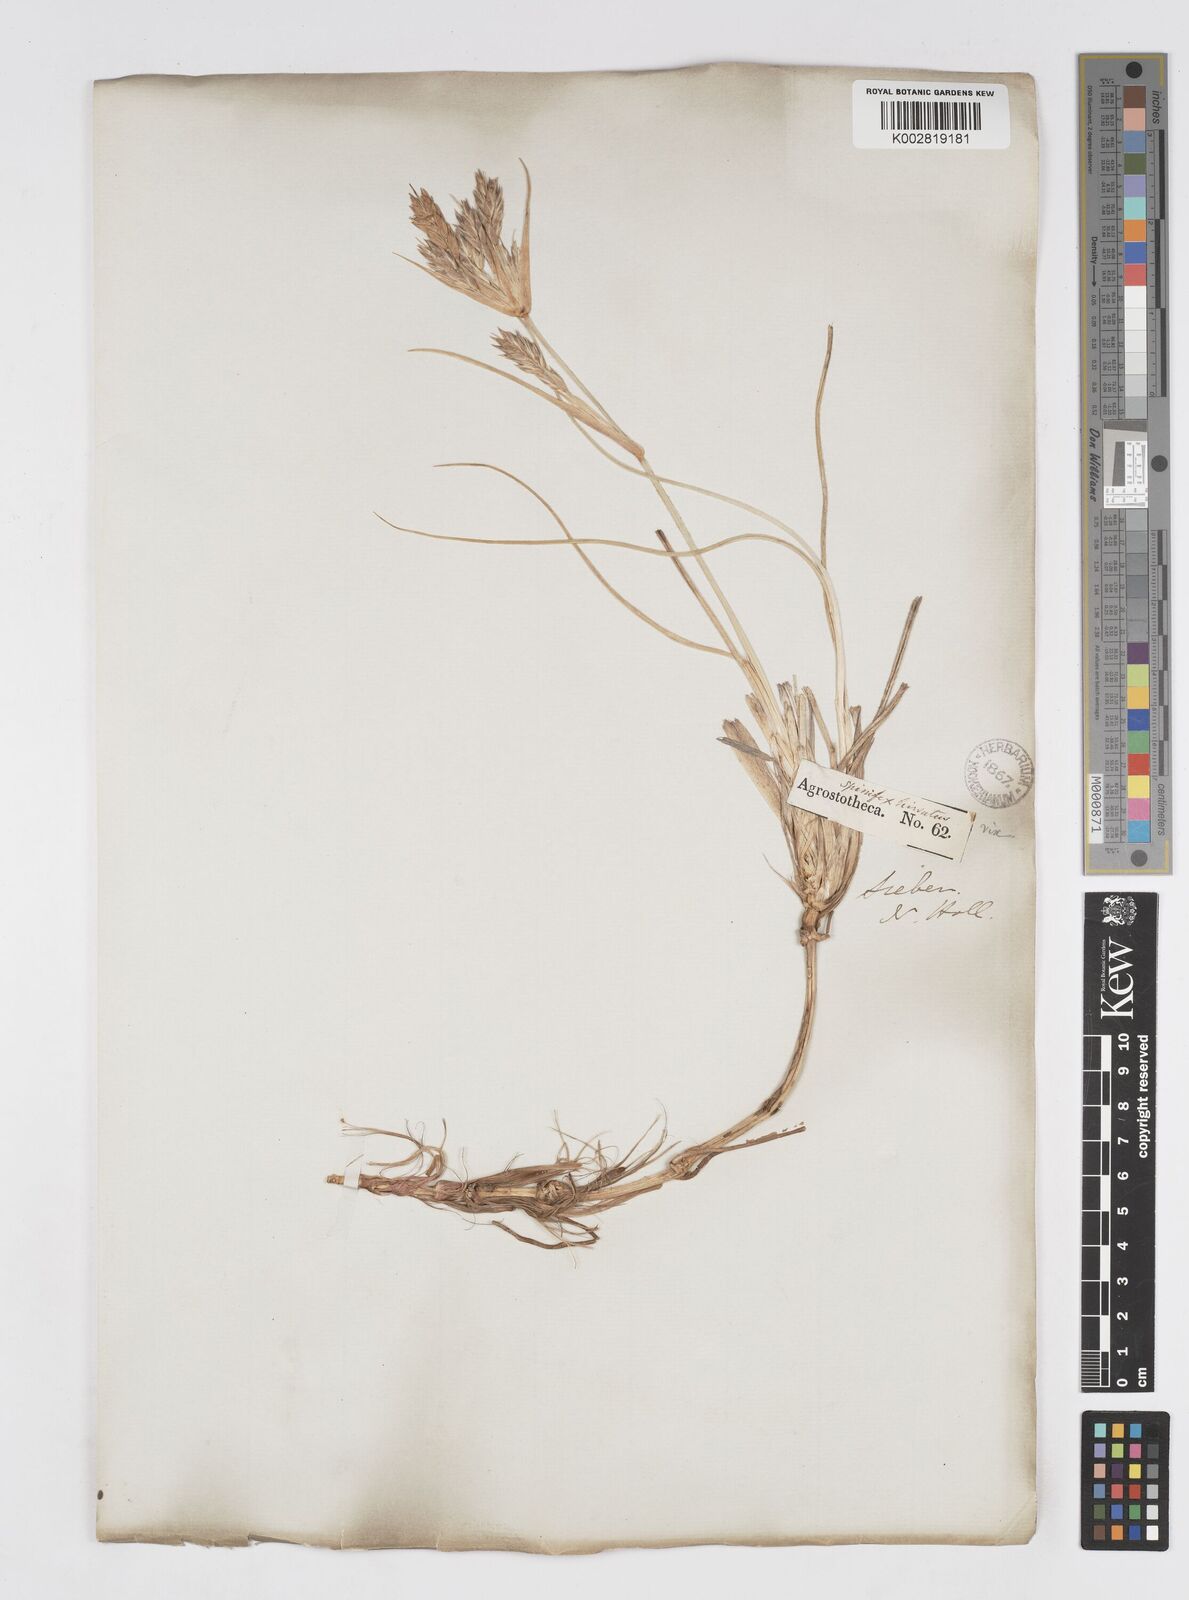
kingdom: Plantae
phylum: Tracheophyta
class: Liliopsida
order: Poales
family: Poaceae
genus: Spinifex
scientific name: Spinifex sericeus
